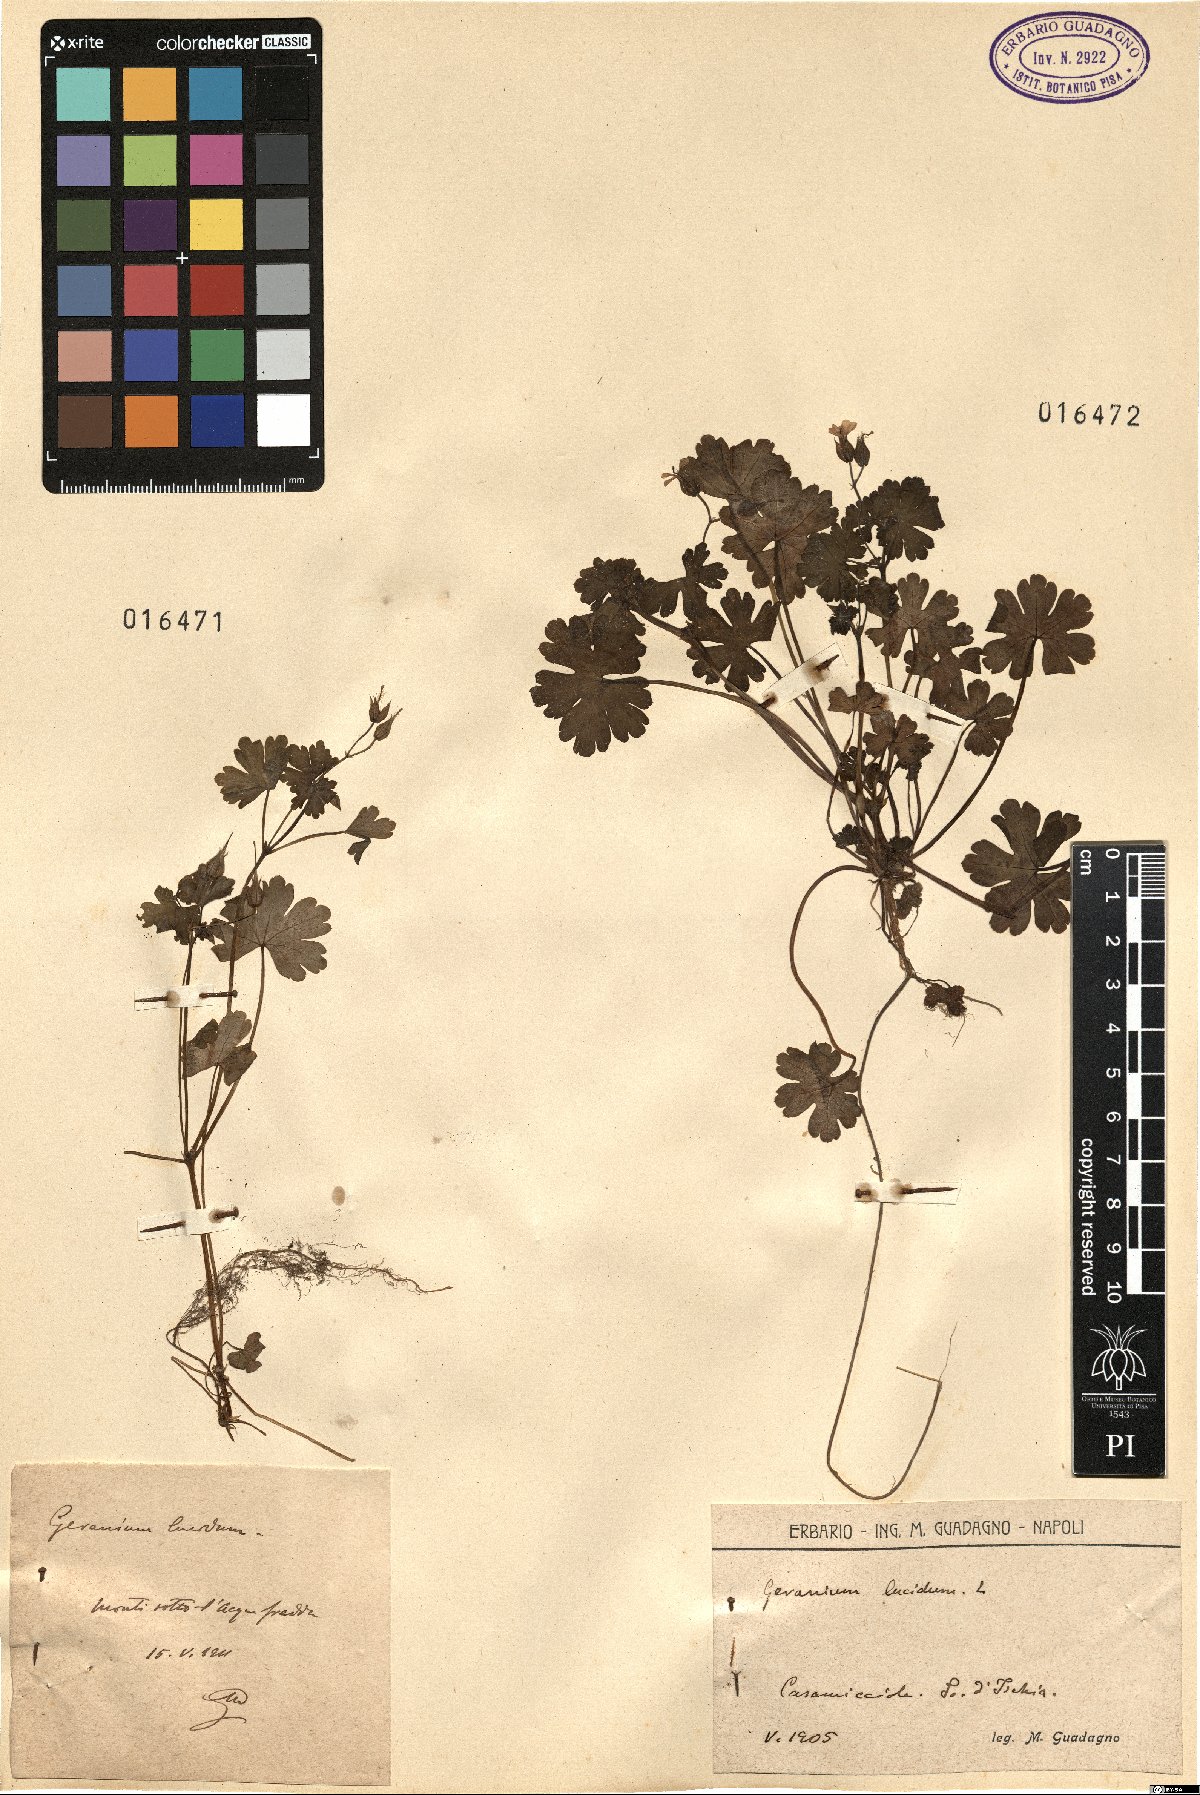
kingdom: Plantae
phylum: Tracheophyta
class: Magnoliopsida
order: Geraniales
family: Geraniaceae
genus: Geranium
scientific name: Geranium lucidum
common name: Shining crane's-bill
